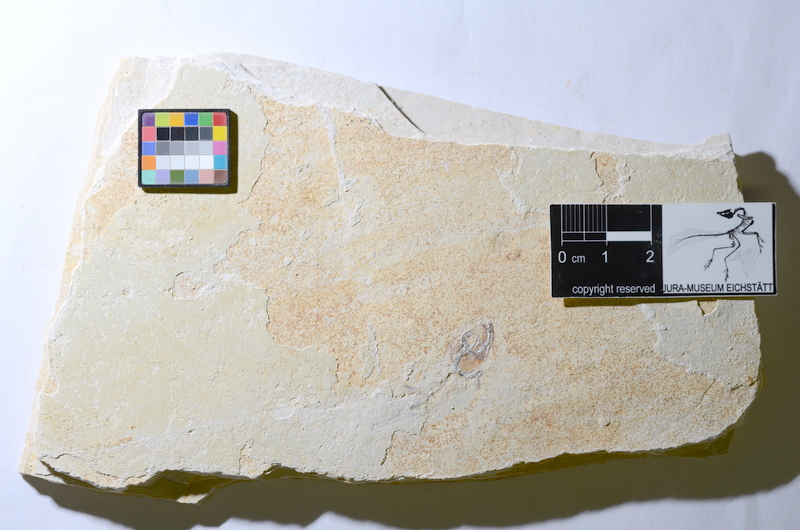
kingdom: Animalia
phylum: Chordata
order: Salmoniformes
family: Orthogonikleithridae
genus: Orthogonikleithrus
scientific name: Orthogonikleithrus hoelli
